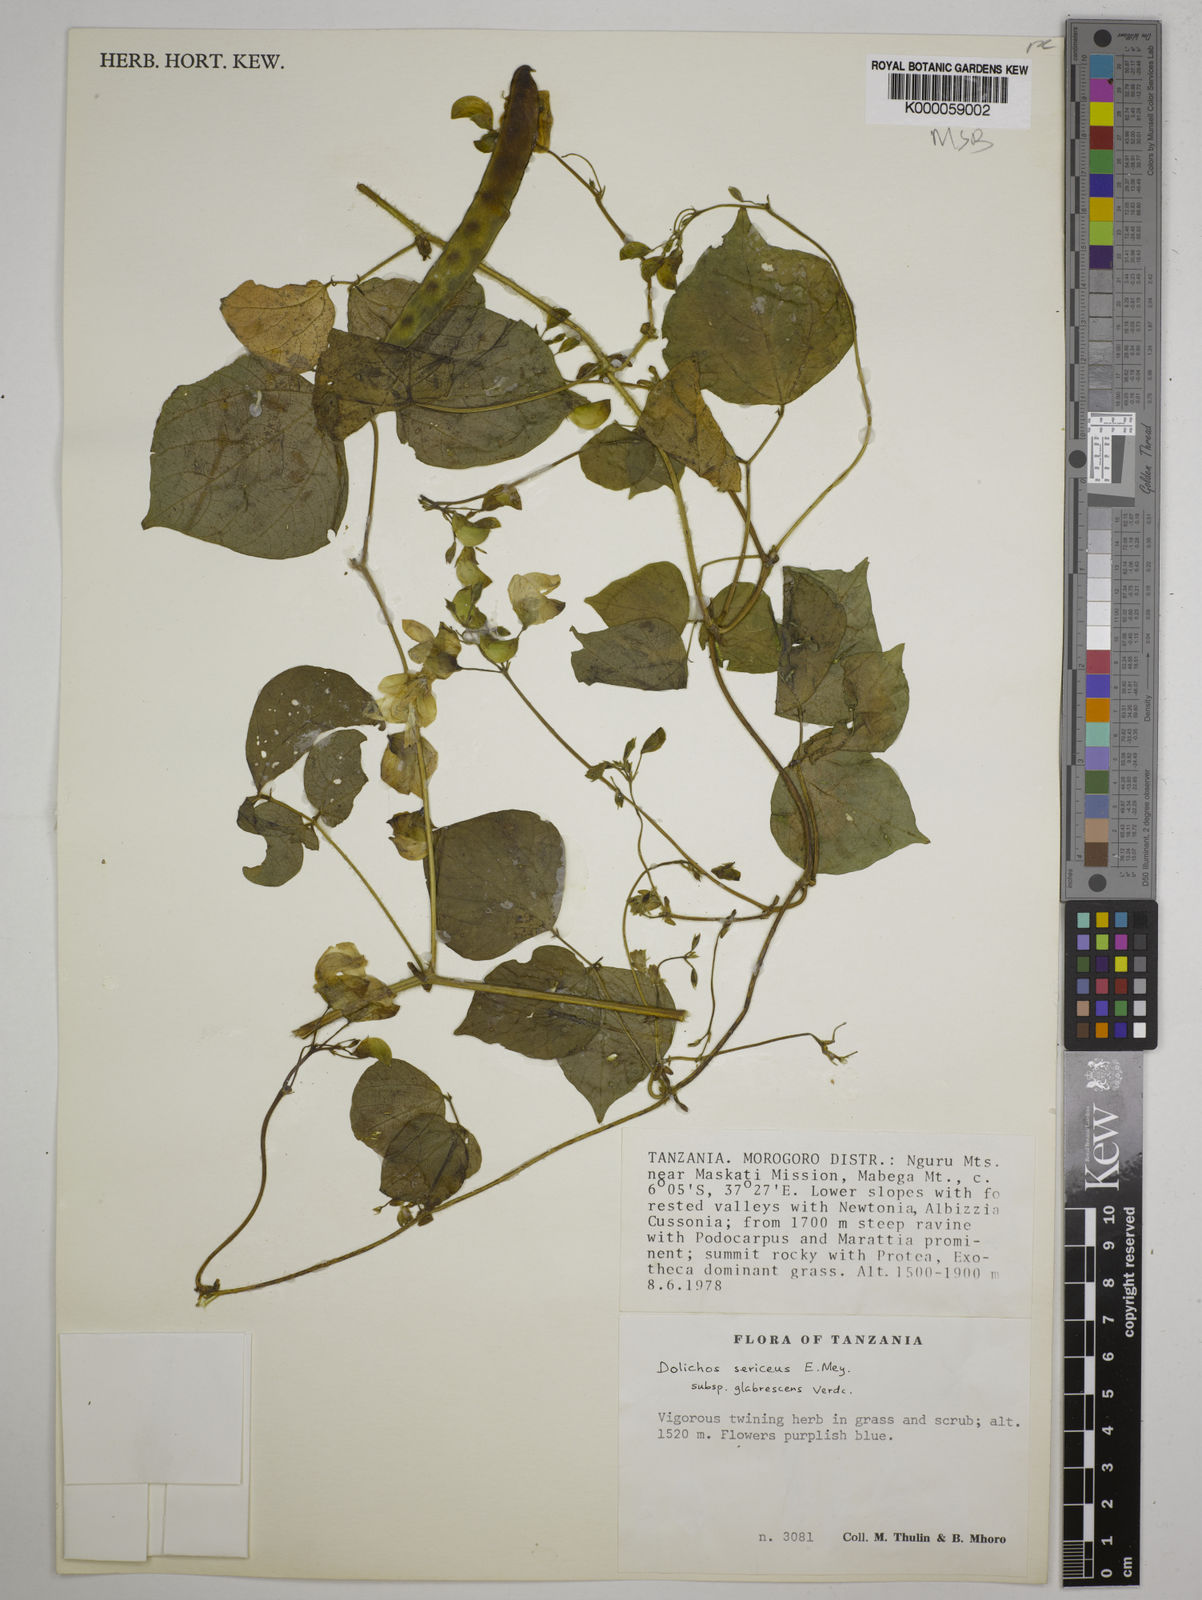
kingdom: Plantae
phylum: Tracheophyta
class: Magnoliopsida
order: Fabales
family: Fabaceae
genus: Dolichos
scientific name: Dolichos sericeus
